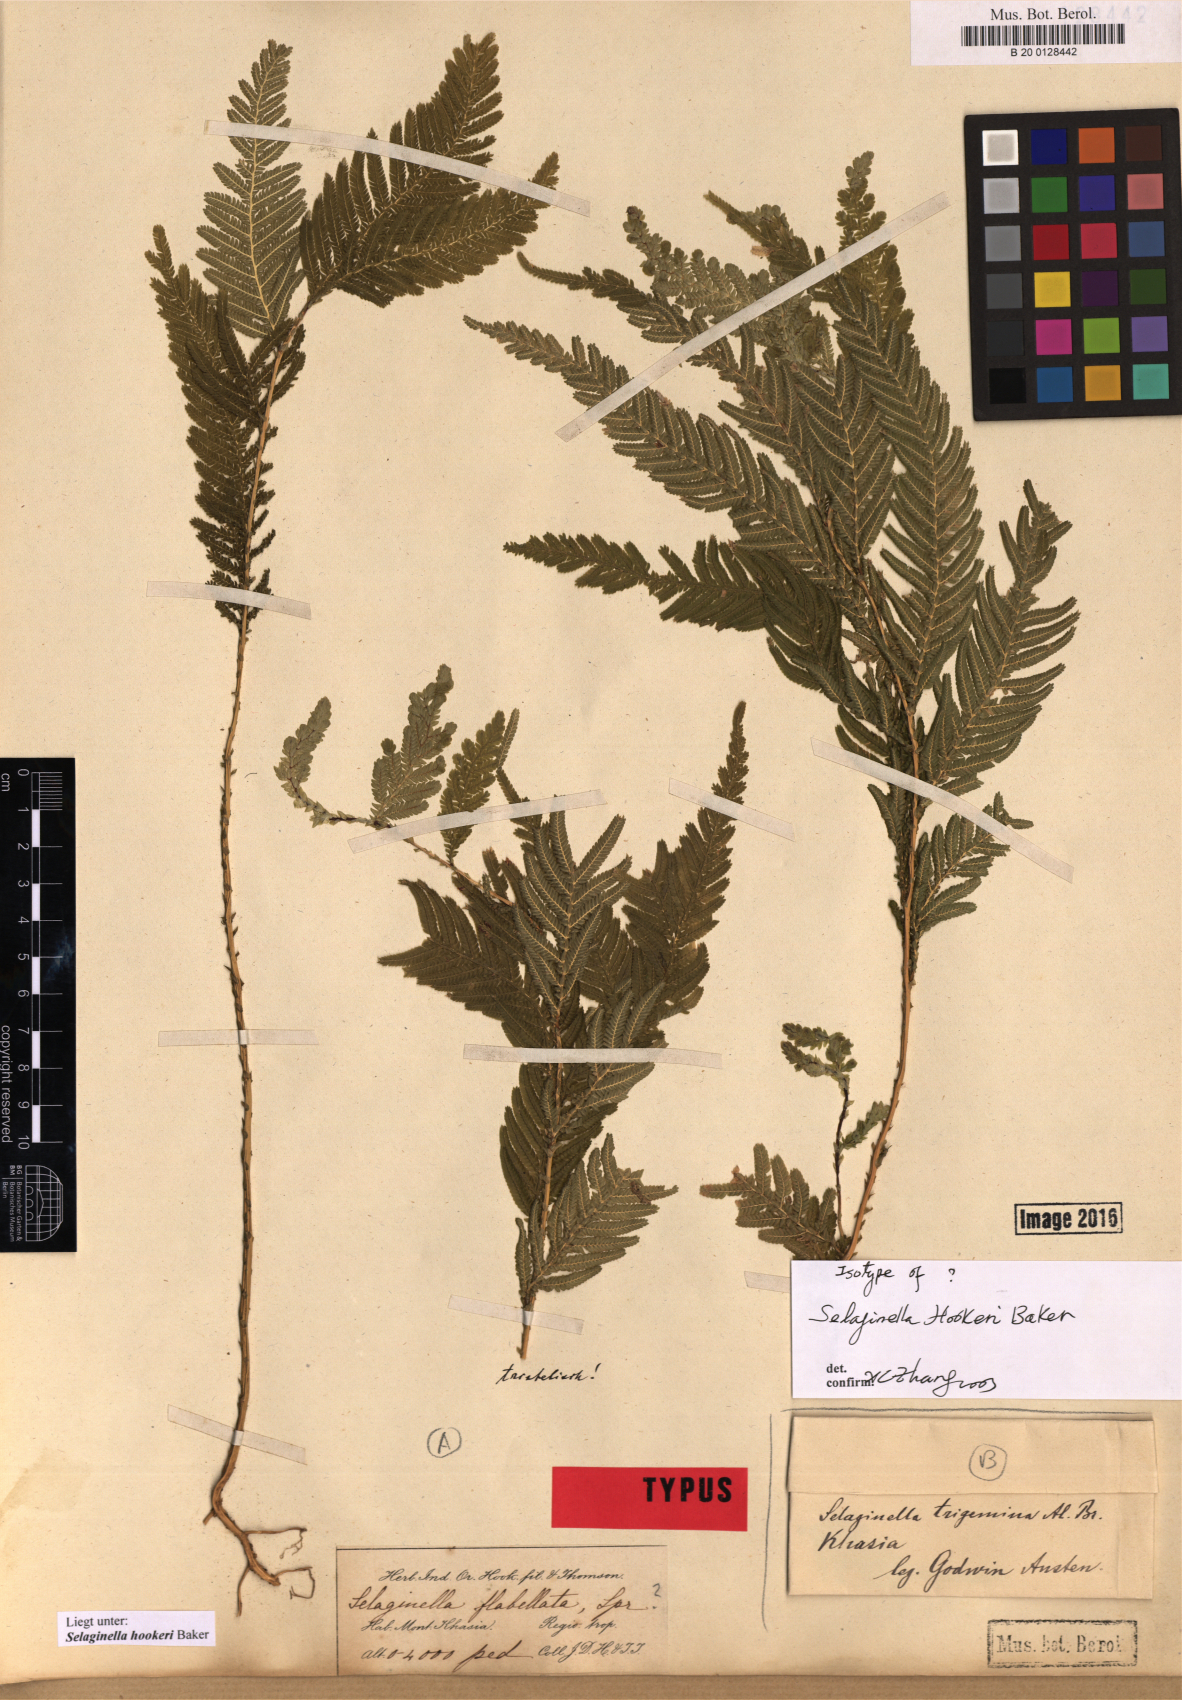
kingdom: Plantae
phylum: Tracheophyta
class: Lycopodiopsida
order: Selaginellales
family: Selaginellaceae
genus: Selaginella
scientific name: Selaginella inaequalifolia
